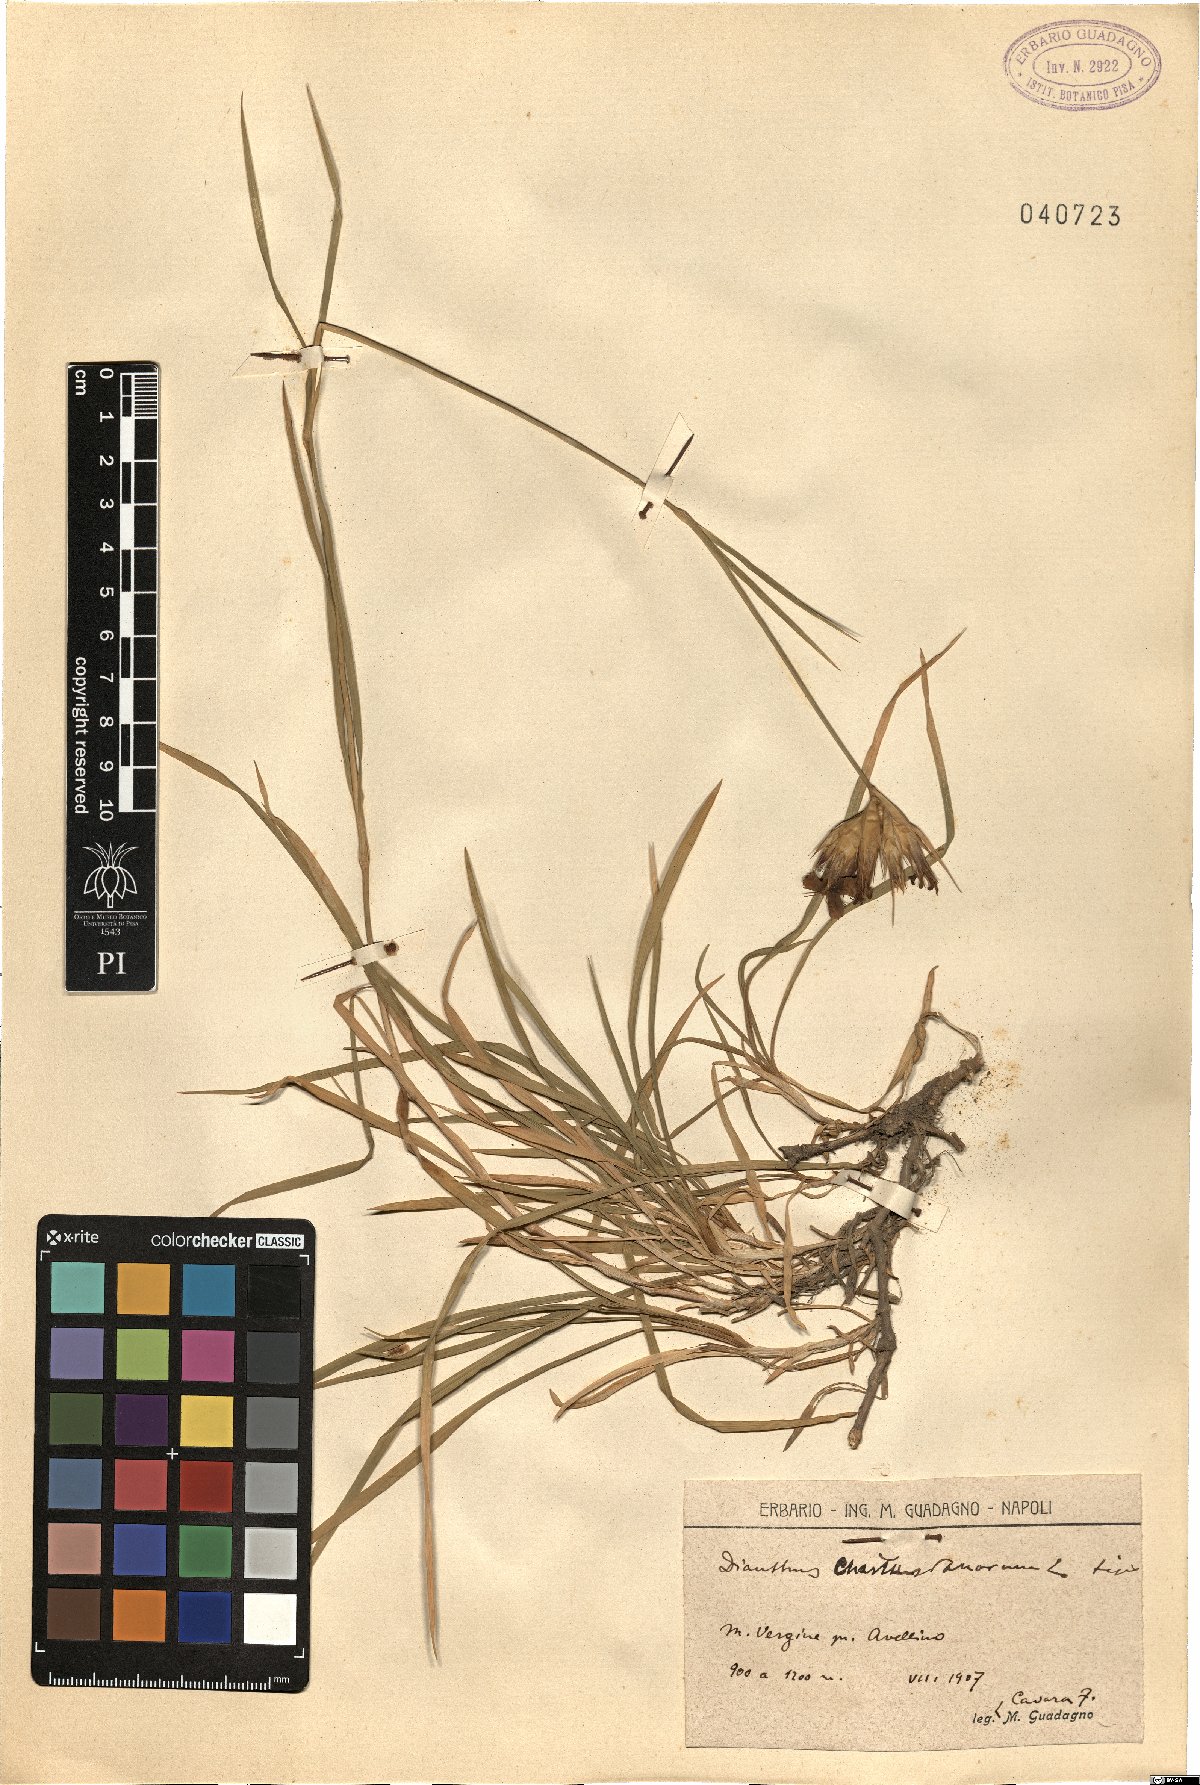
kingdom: Plantae
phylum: Tracheophyta
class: Magnoliopsida
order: Caryophyllales
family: Caryophyllaceae
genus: Dianthus
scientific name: Dianthus carthusianorum
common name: Carthusian pink
